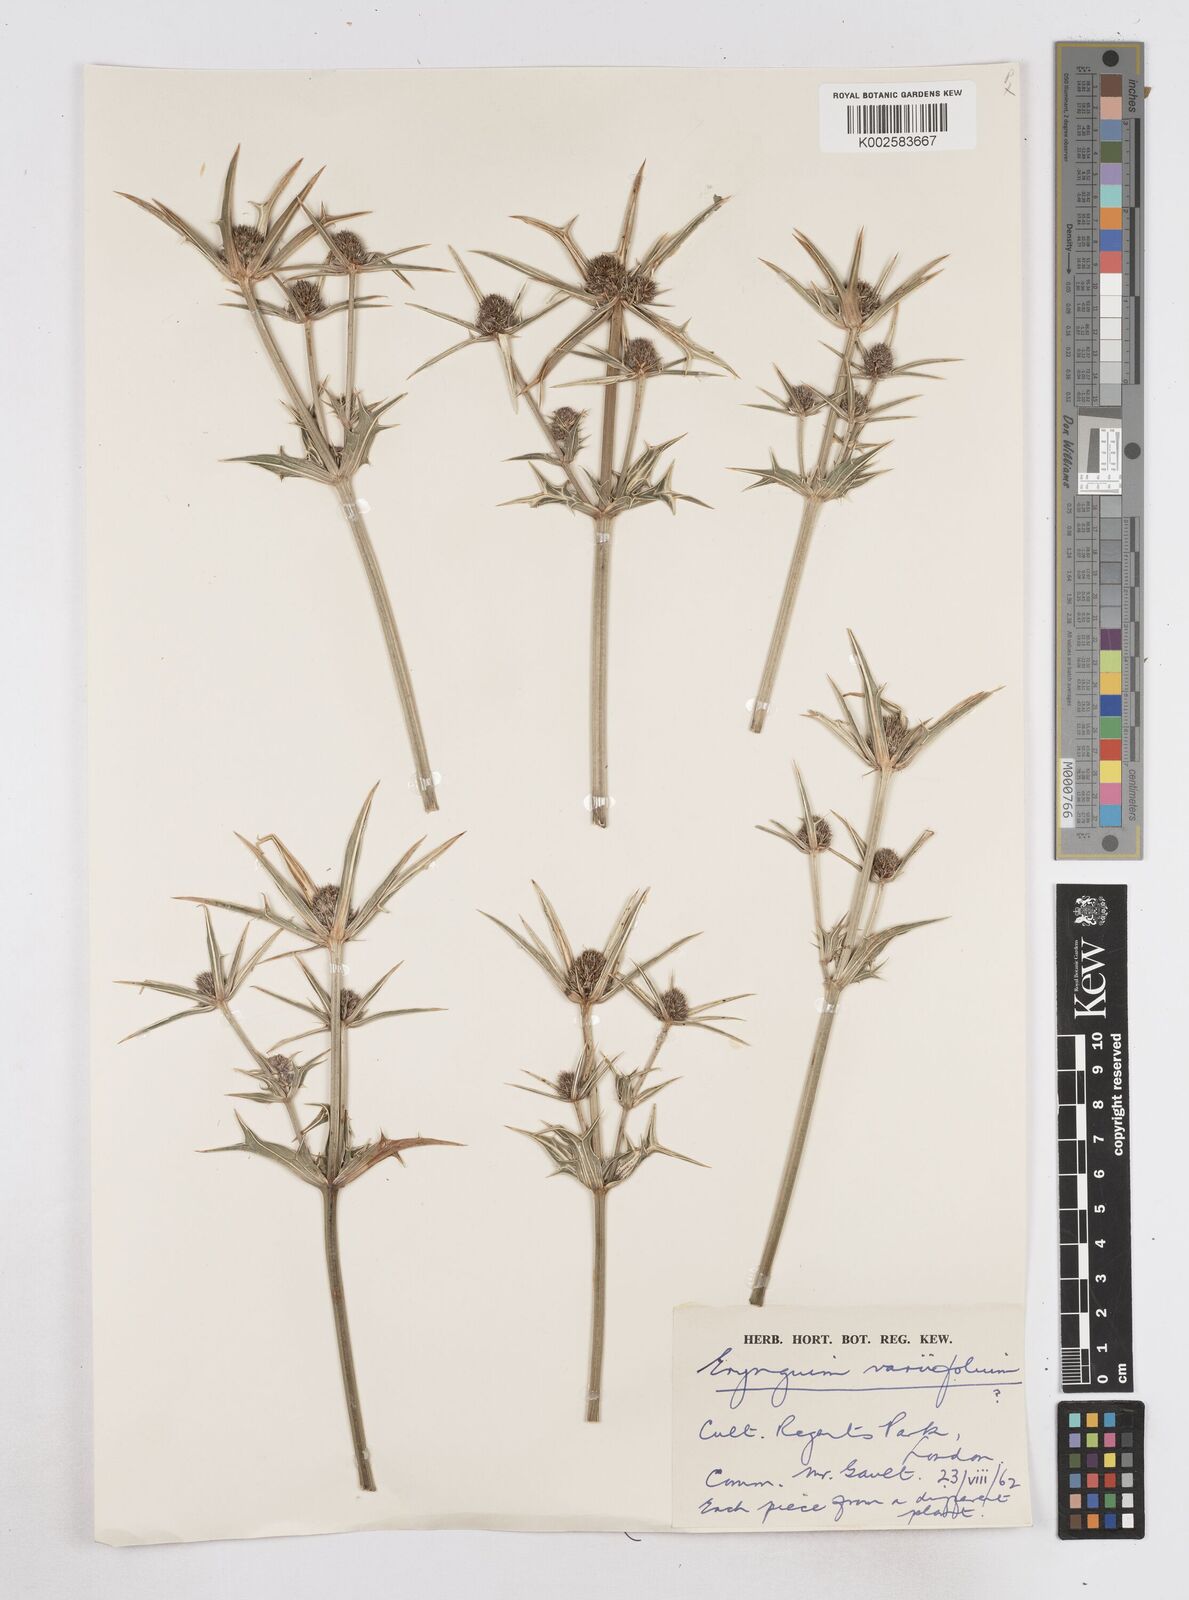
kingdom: Plantae
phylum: Tracheophyta
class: Magnoliopsida
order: Apiales
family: Apiaceae
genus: Eryngium
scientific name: Eryngium variifolium
